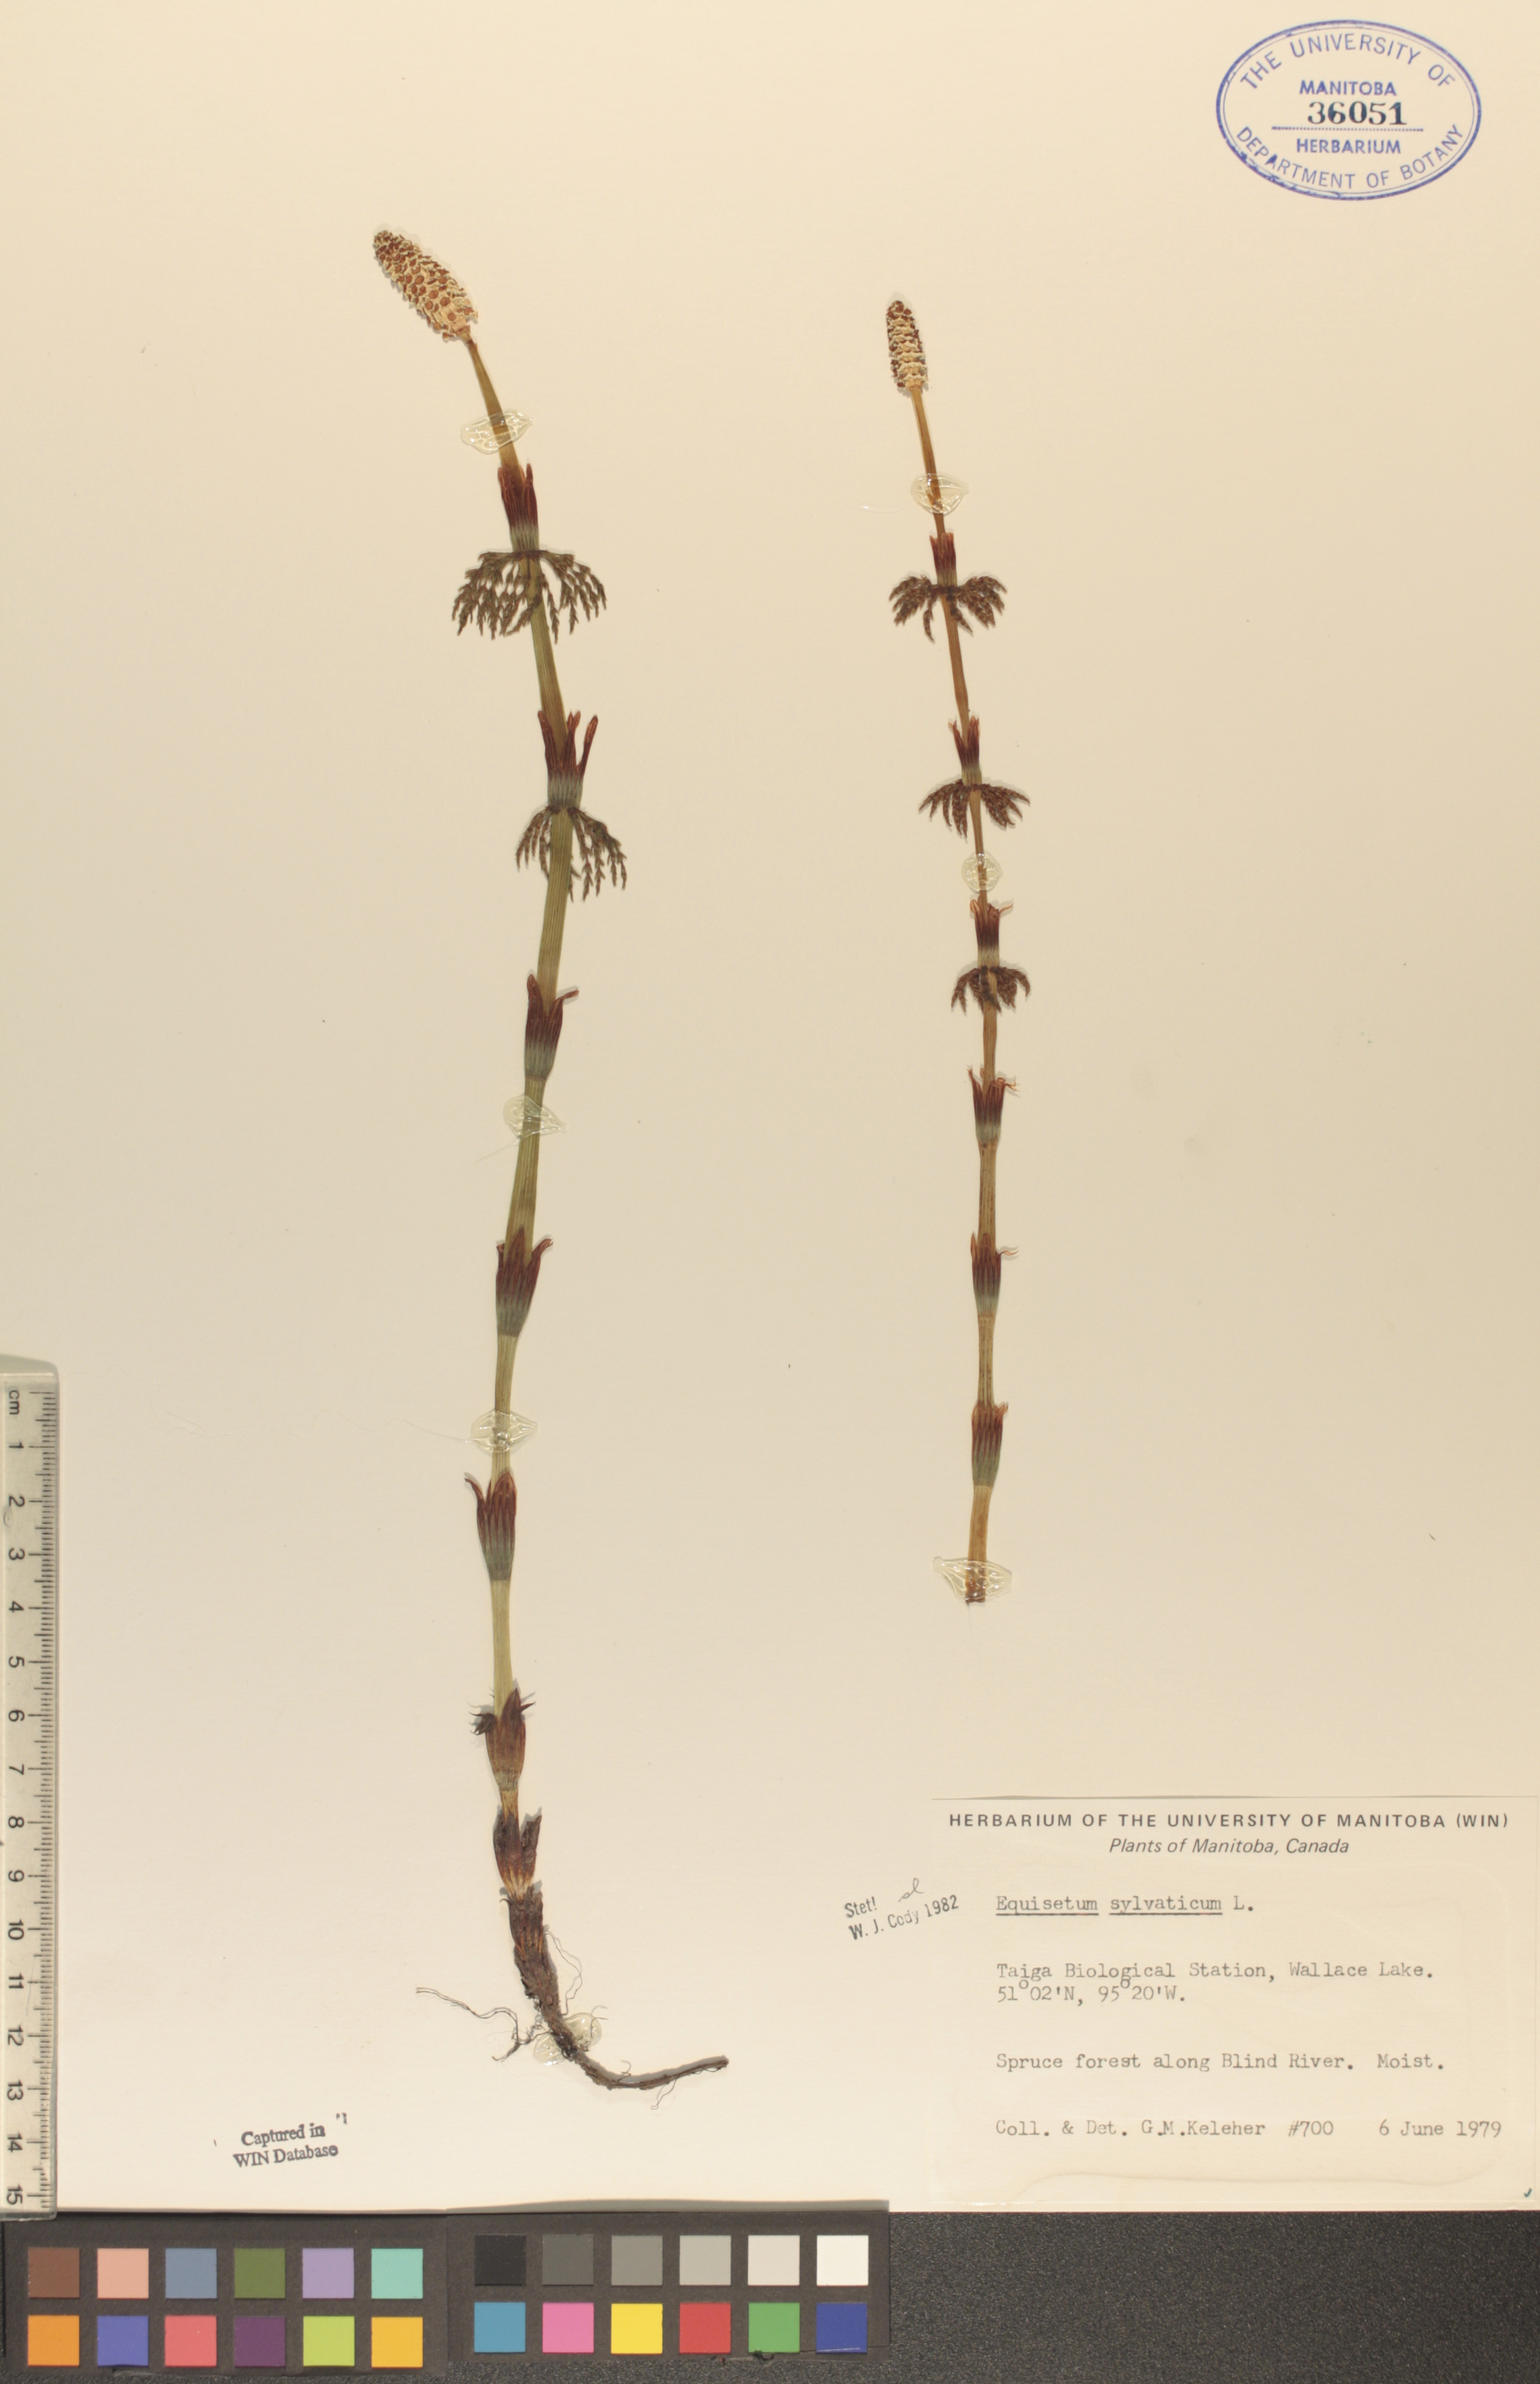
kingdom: Plantae
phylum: Tracheophyta
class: Polypodiopsida
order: Equisetales
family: Equisetaceae
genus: Equisetum
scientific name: Equisetum sylvaticum
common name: Wood horsetail
